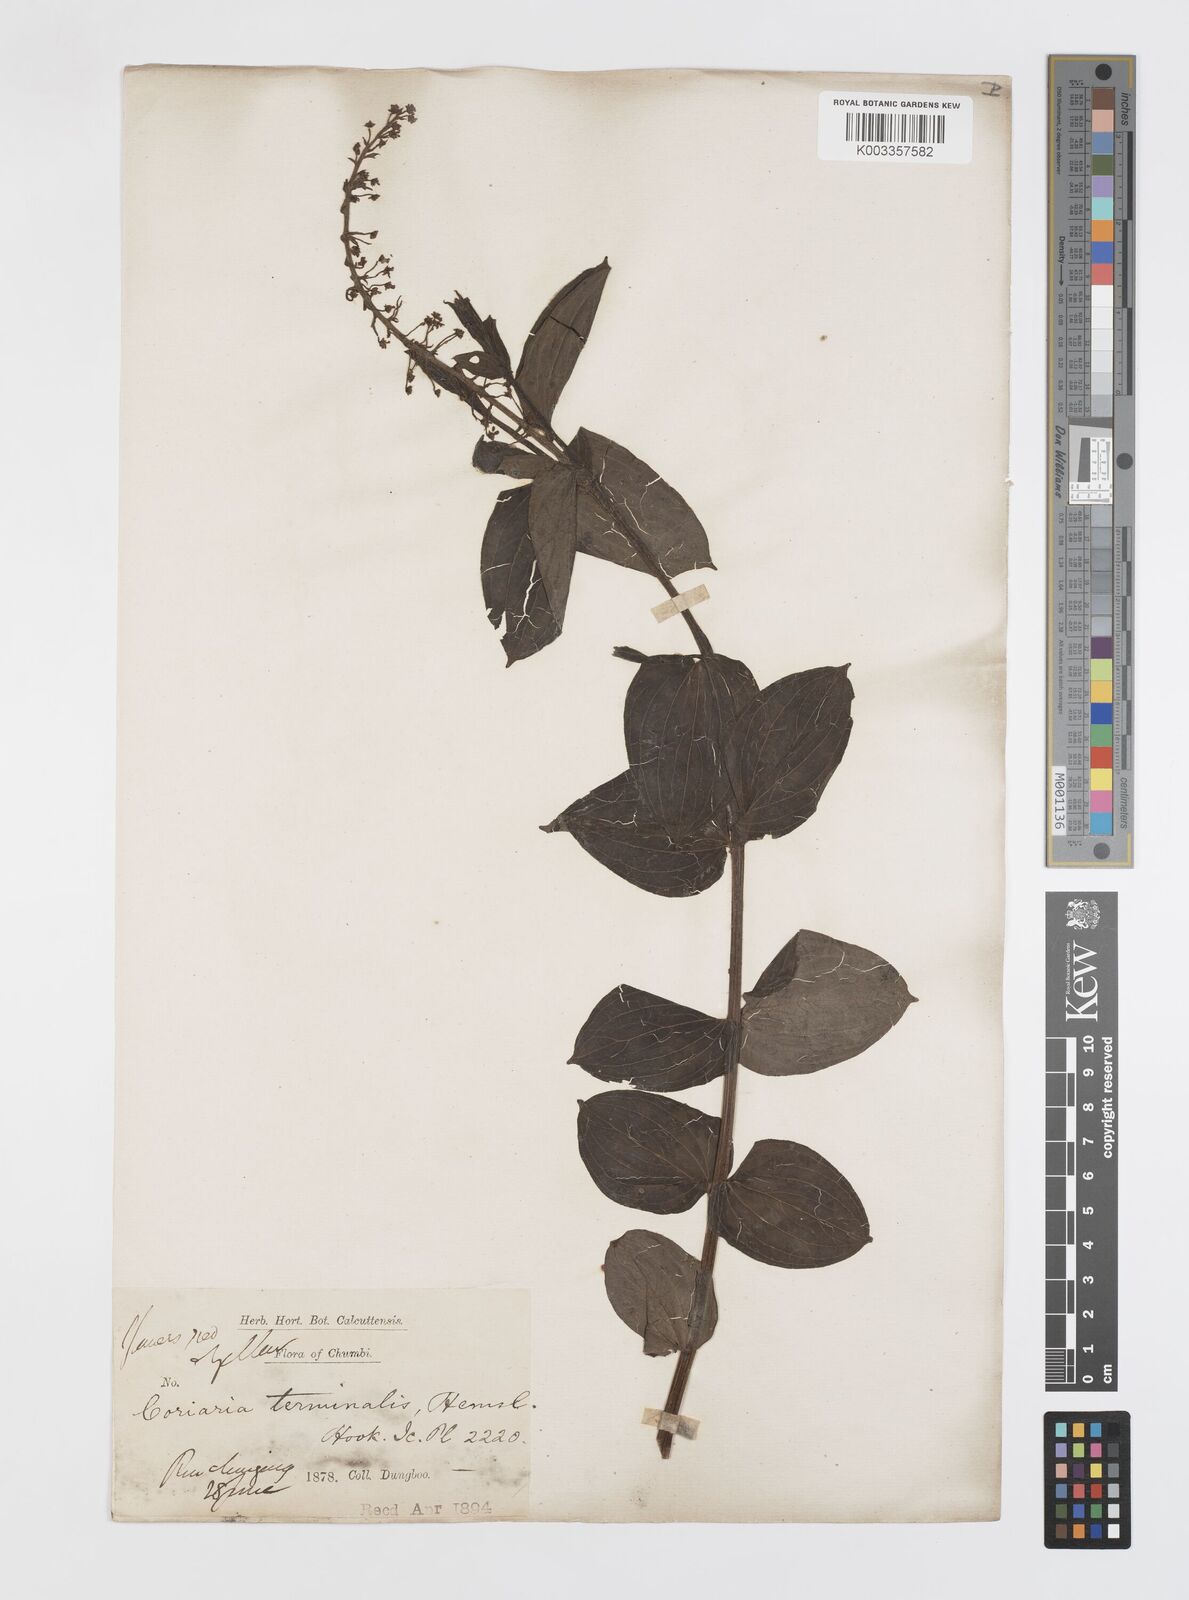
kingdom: Plantae
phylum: Tracheophyta
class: Magnoliopsida
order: Cucurbitales
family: Coriariaceae
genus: Coriaria
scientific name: Coriaria terminalis
